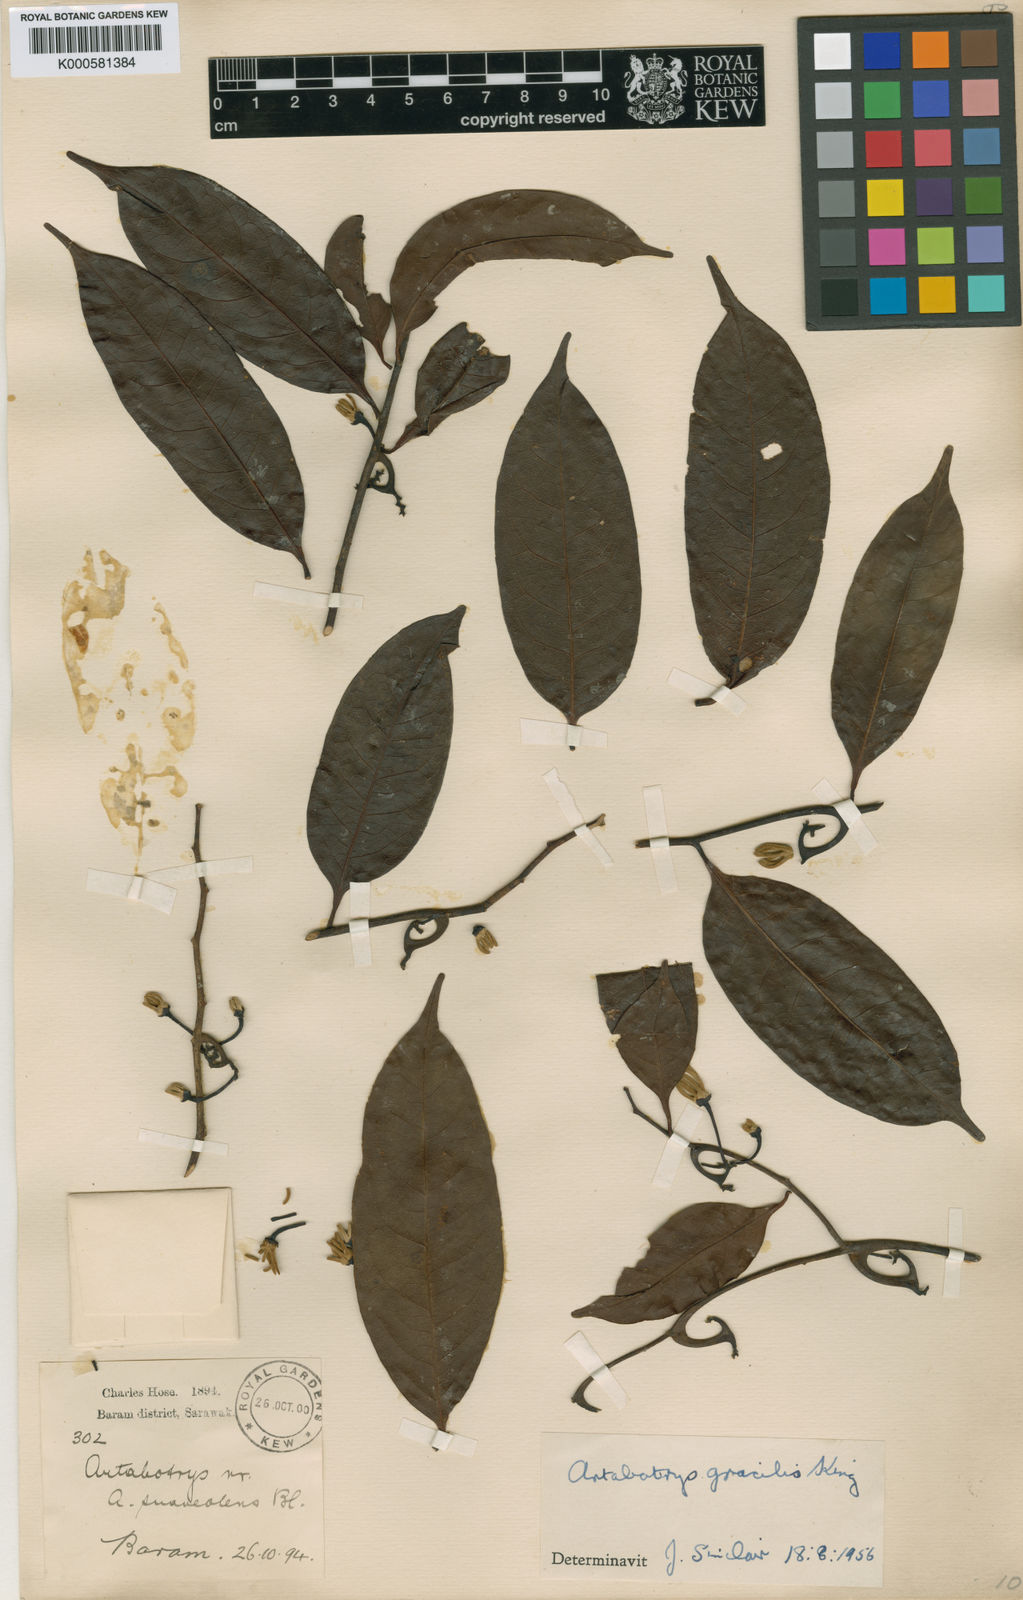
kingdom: Plantae
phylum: Tracheophyta
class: Magnoliopsida
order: Magnoliales
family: Annonaceae
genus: Artabotrys
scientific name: Artabotrys sarawakensis
